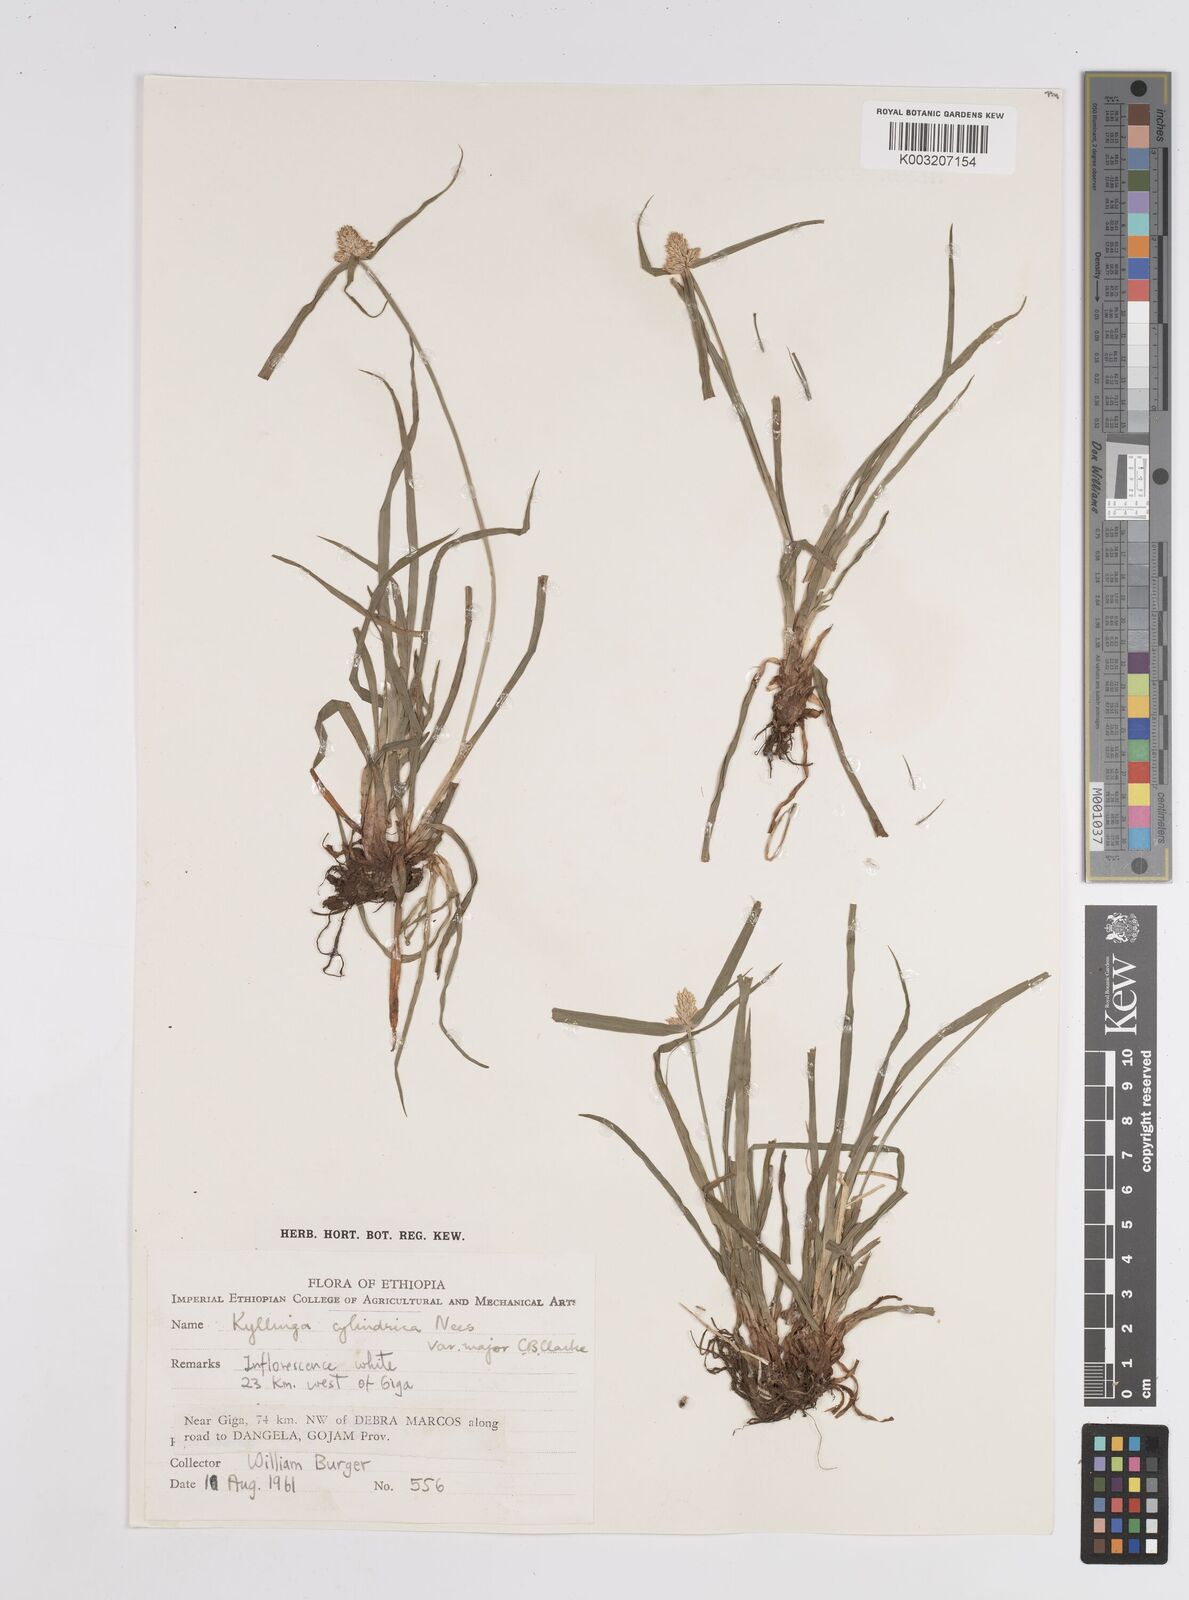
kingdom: Plantae
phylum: Tracheophyta
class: Liliopsida
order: Poales
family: Cyperaceae
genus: Cyperus
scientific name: Cyperus
